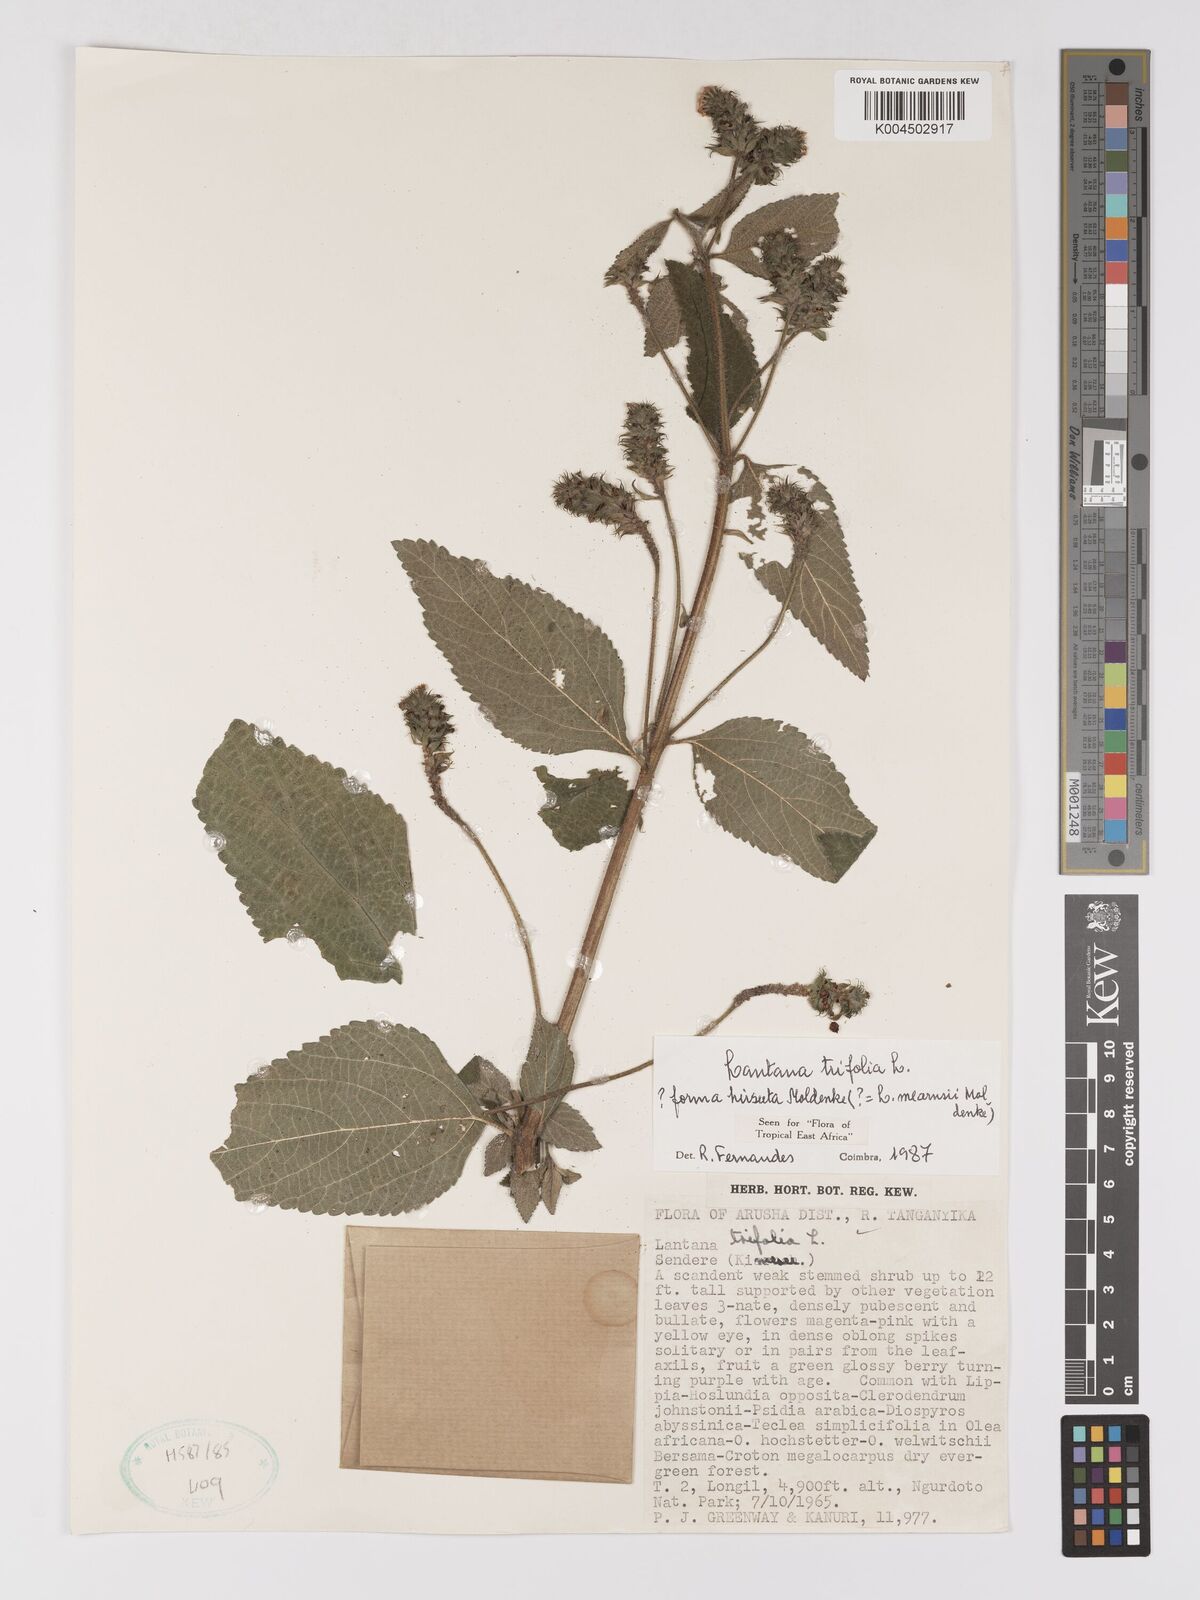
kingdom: Plantae
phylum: Tracheophyta
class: Magnoliopsida
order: Lamiales
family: Verbenaceae
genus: Lantana
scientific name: Lantana trifolia
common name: Sweet-sage
